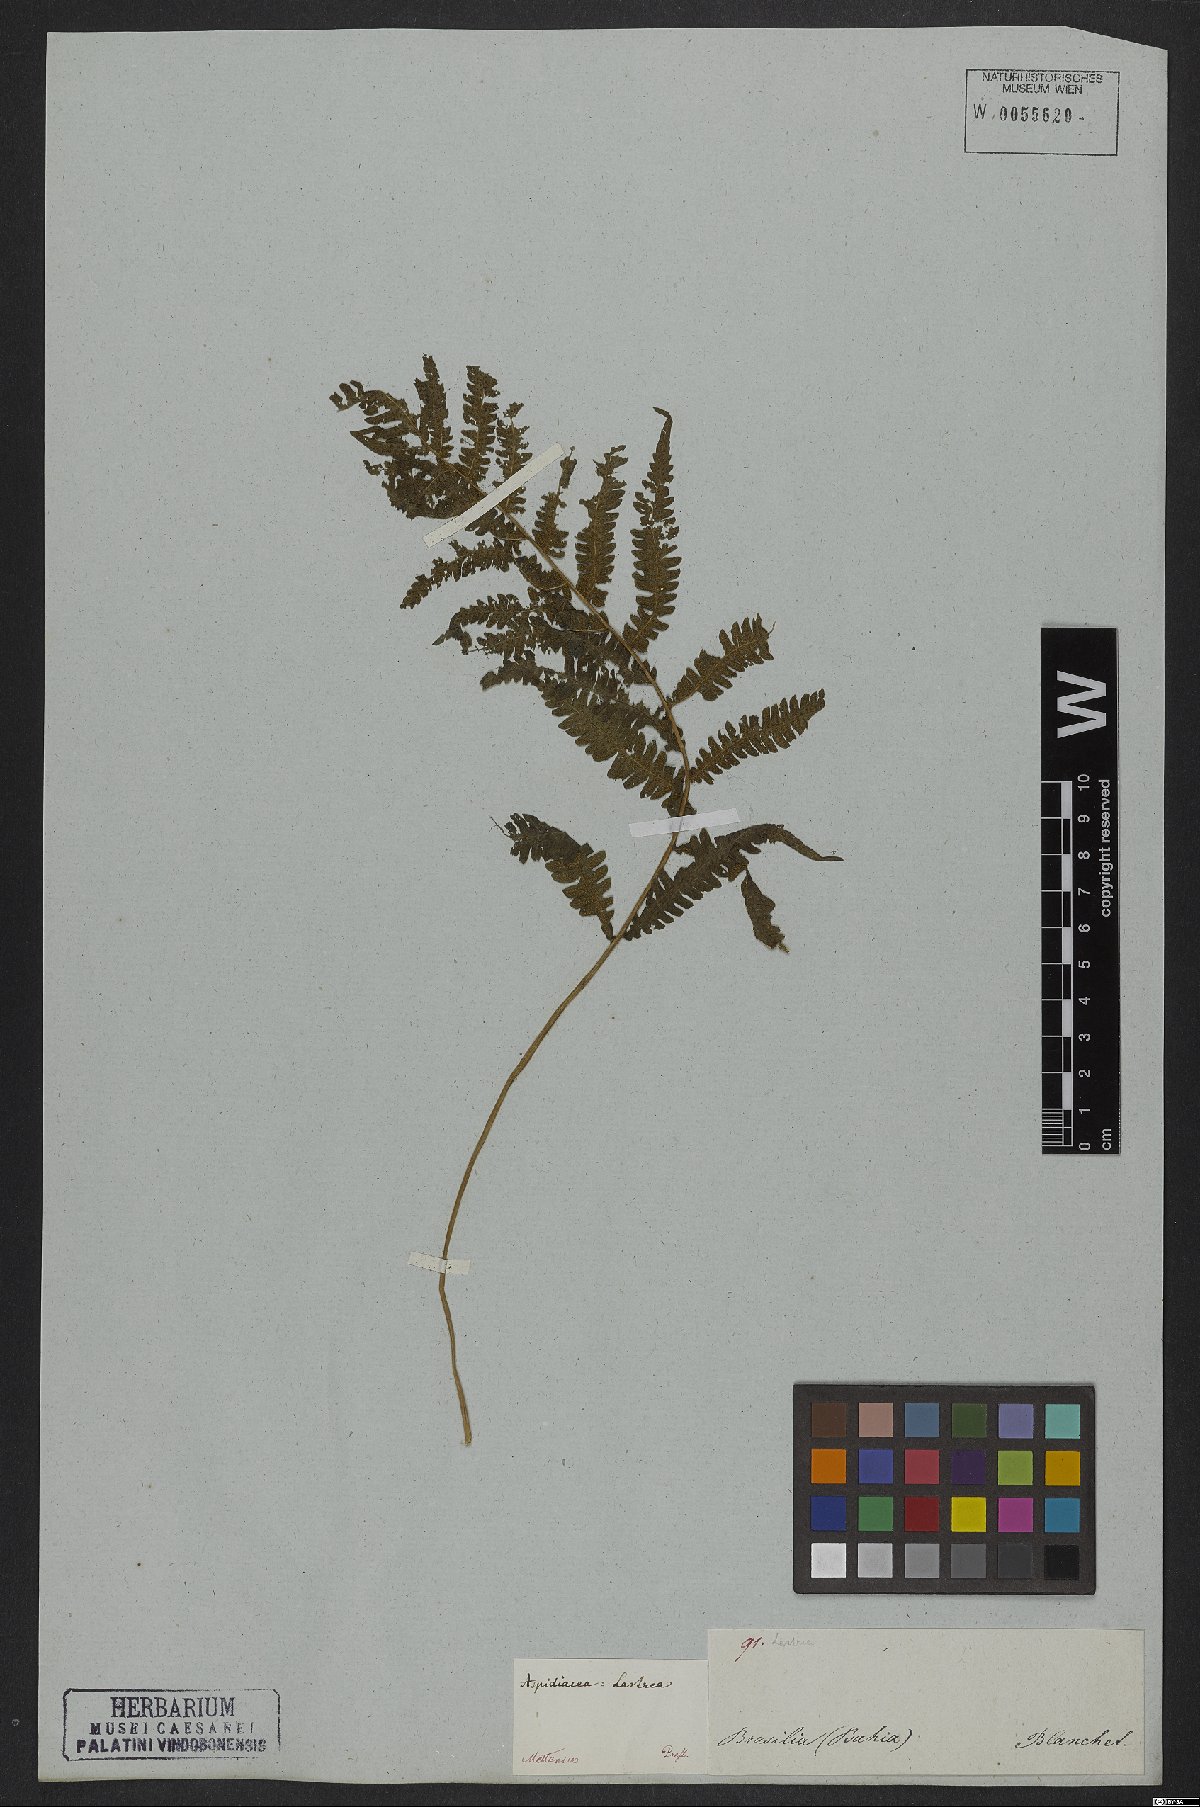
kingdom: Plantae
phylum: Tracheophyta
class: Polypodiopsida
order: Polypodiales
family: Dryopteridaceae
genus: Ctenitis
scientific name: Ctenitis falciculata
